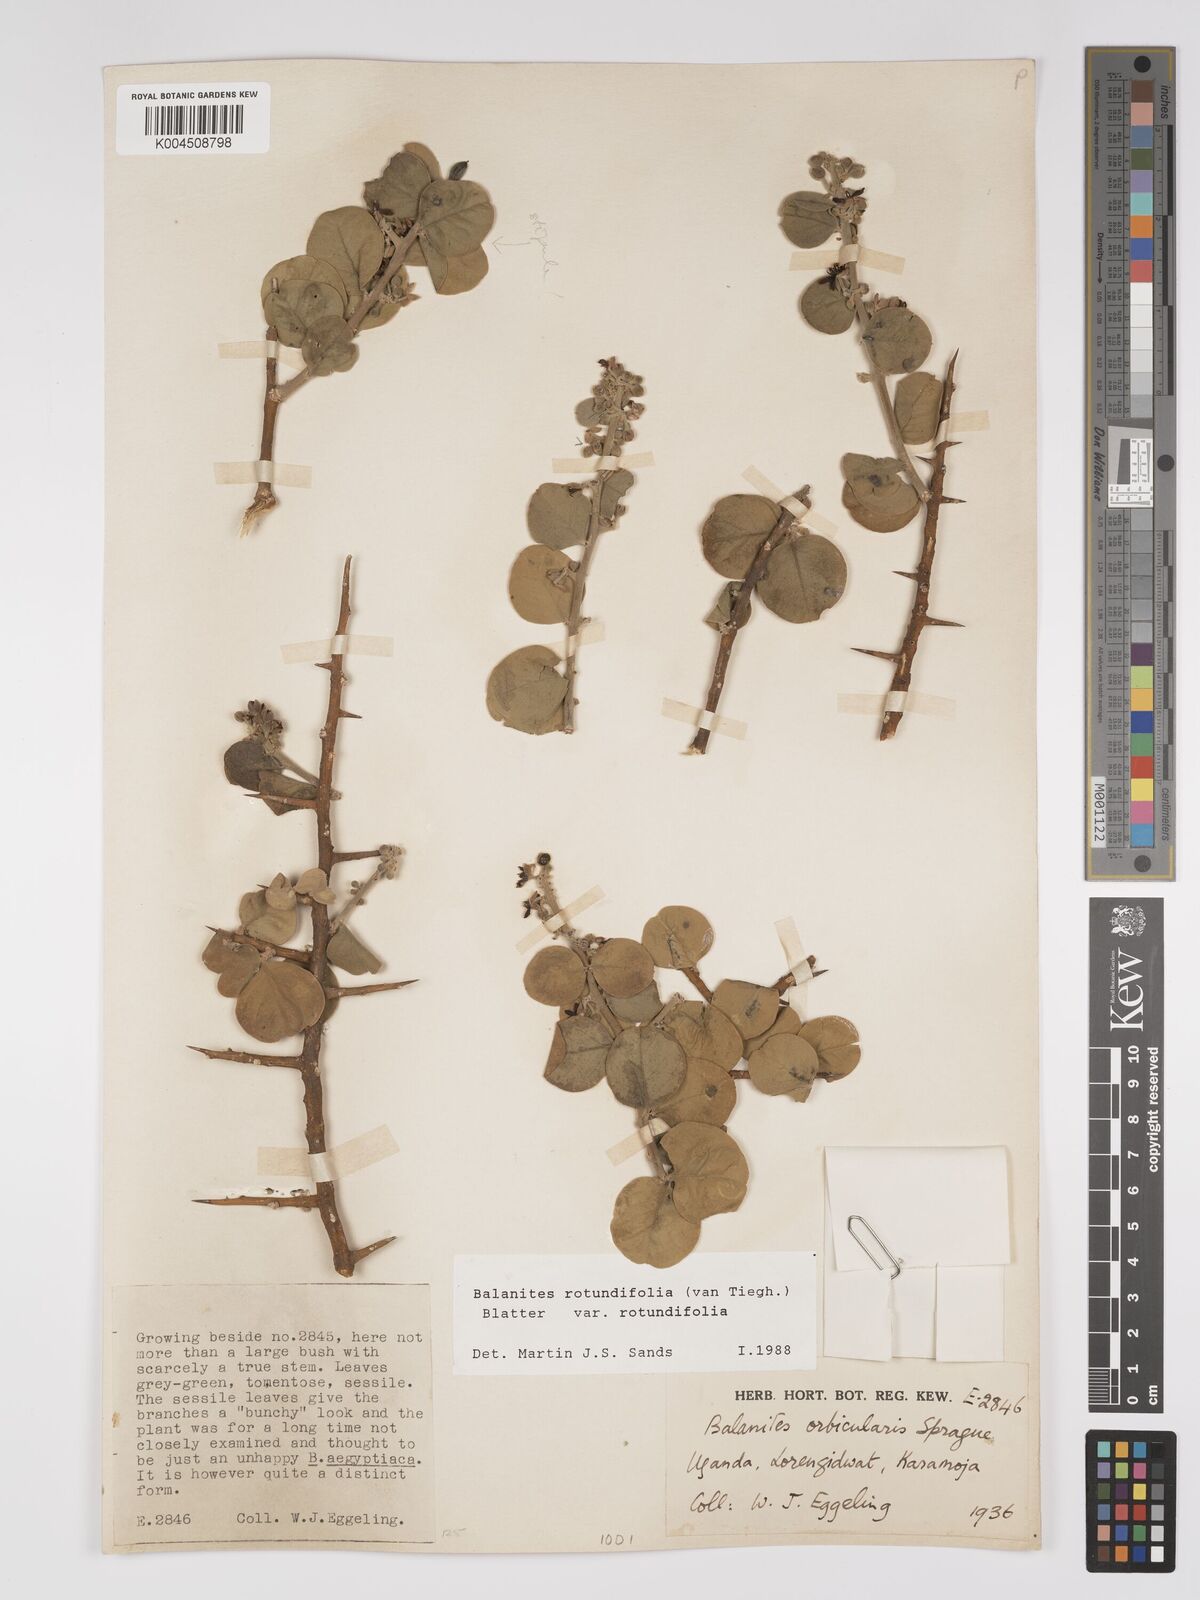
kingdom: Plantae
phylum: Tracheophyta
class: Magnoliopsida
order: Zygophyllales
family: Zygophyllaceae
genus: Balanites
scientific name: Balanites rotundifolia
